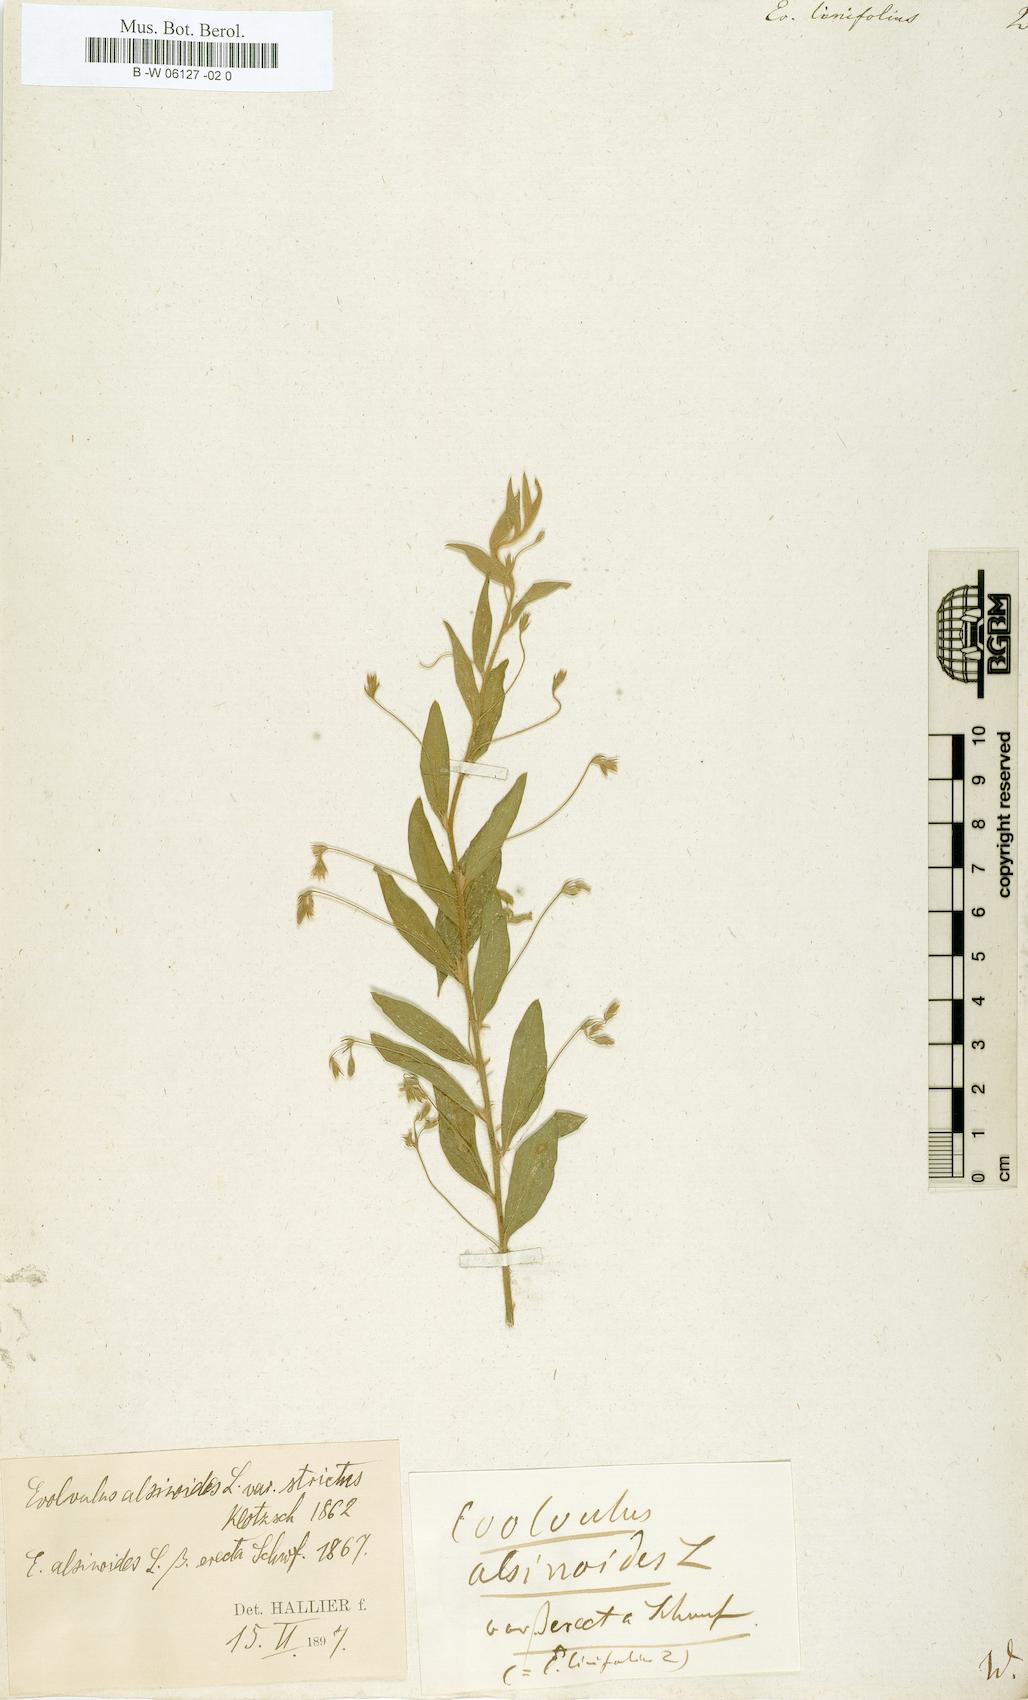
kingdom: Plantae
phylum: Tracheophyta
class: Magnoliopsida
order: Solanales
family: Convolvulaceae
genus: Evolvulus
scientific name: Evolvulus
